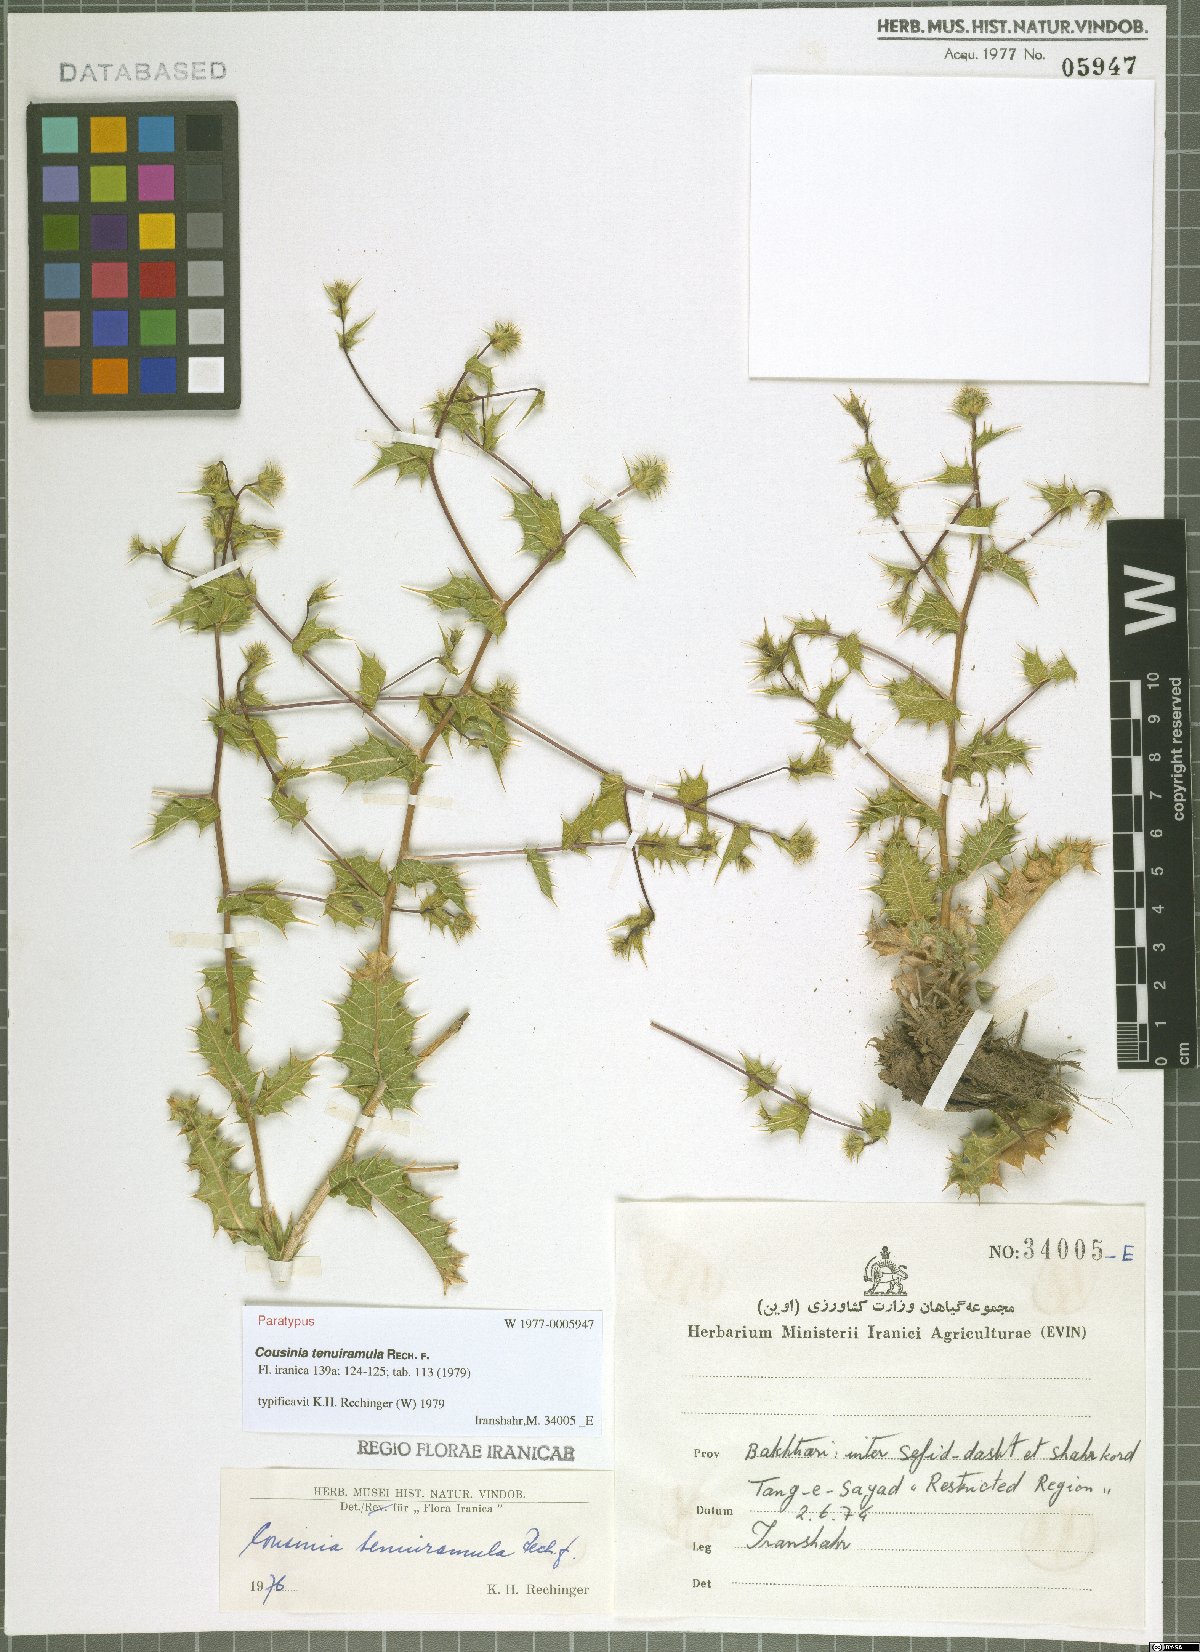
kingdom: Plantae
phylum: Tracheophyta
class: Magnoliopsida
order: Asterales
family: Asteraceae
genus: Cousinia
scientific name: Cousinia tenuiramula
